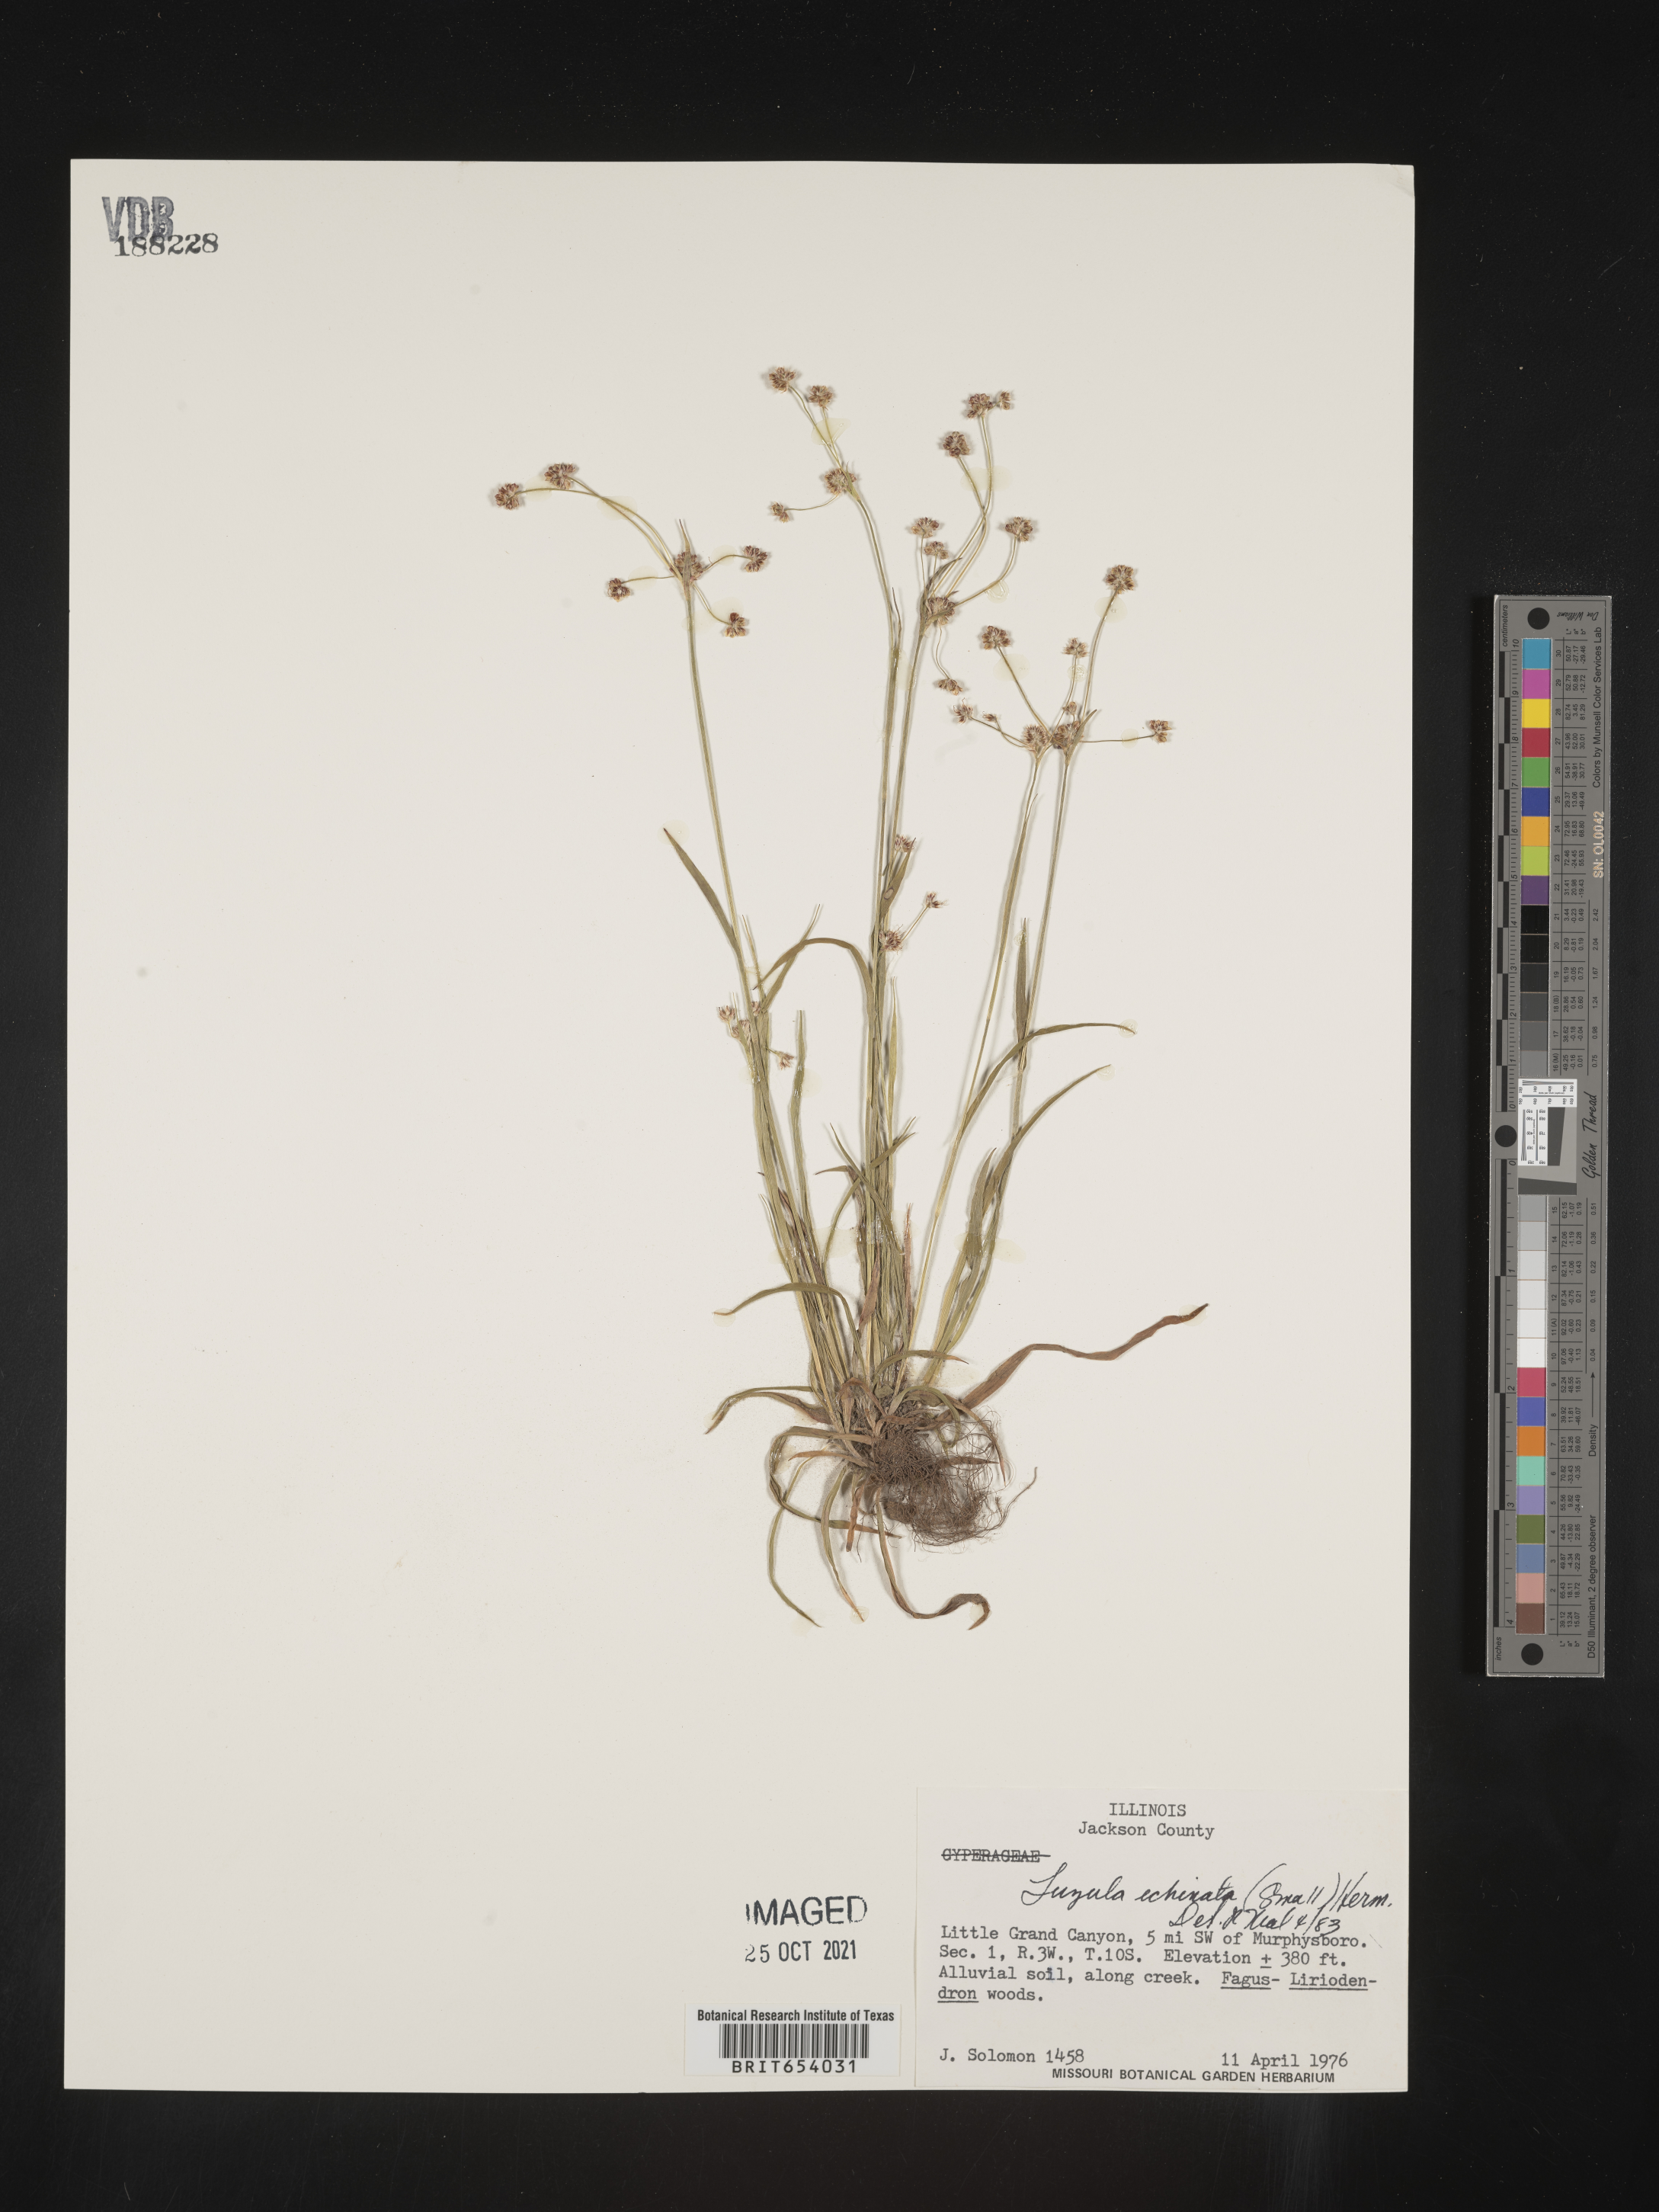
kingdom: Plantae
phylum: Tracheophyta
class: Liliopsida
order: Poales
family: Juncaceae
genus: Luzula
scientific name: Luzula echinata
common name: Hedgehog woodrush
